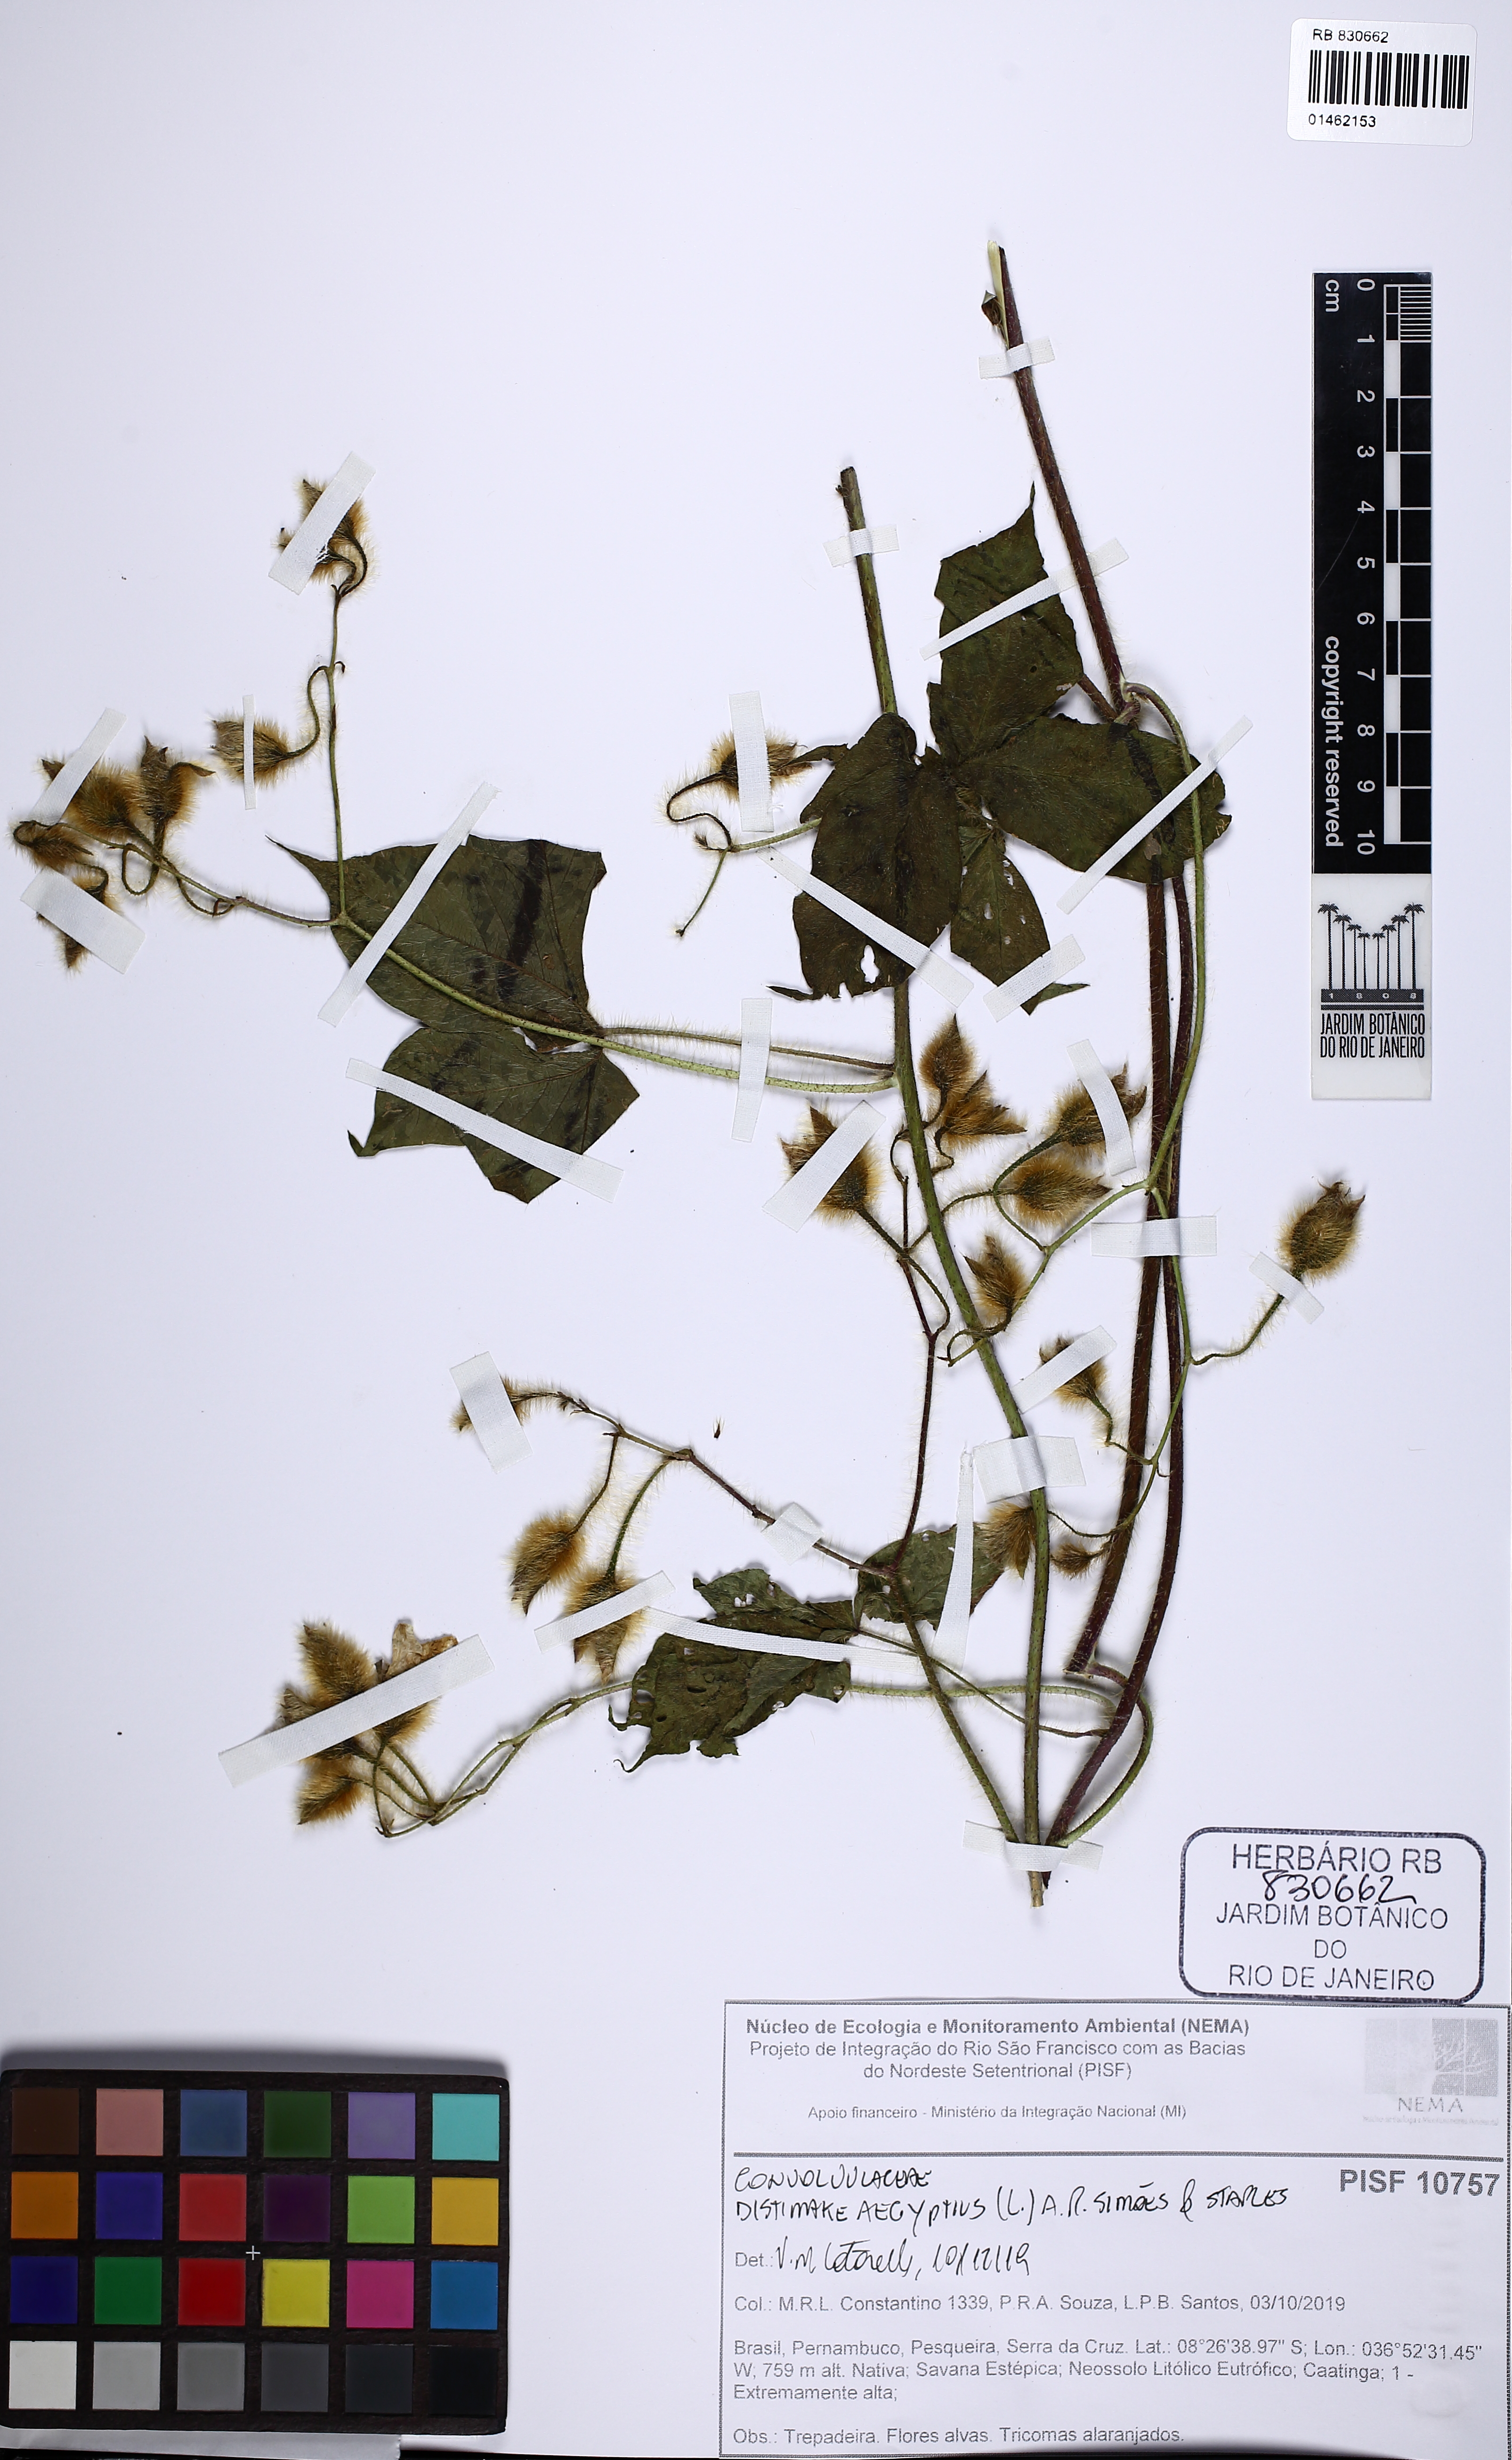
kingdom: Plantae
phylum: Tracheophyta
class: Magnoliopsida
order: Solanales
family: Convolvulaceae
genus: Distimake
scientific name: Distimake aegyptius
